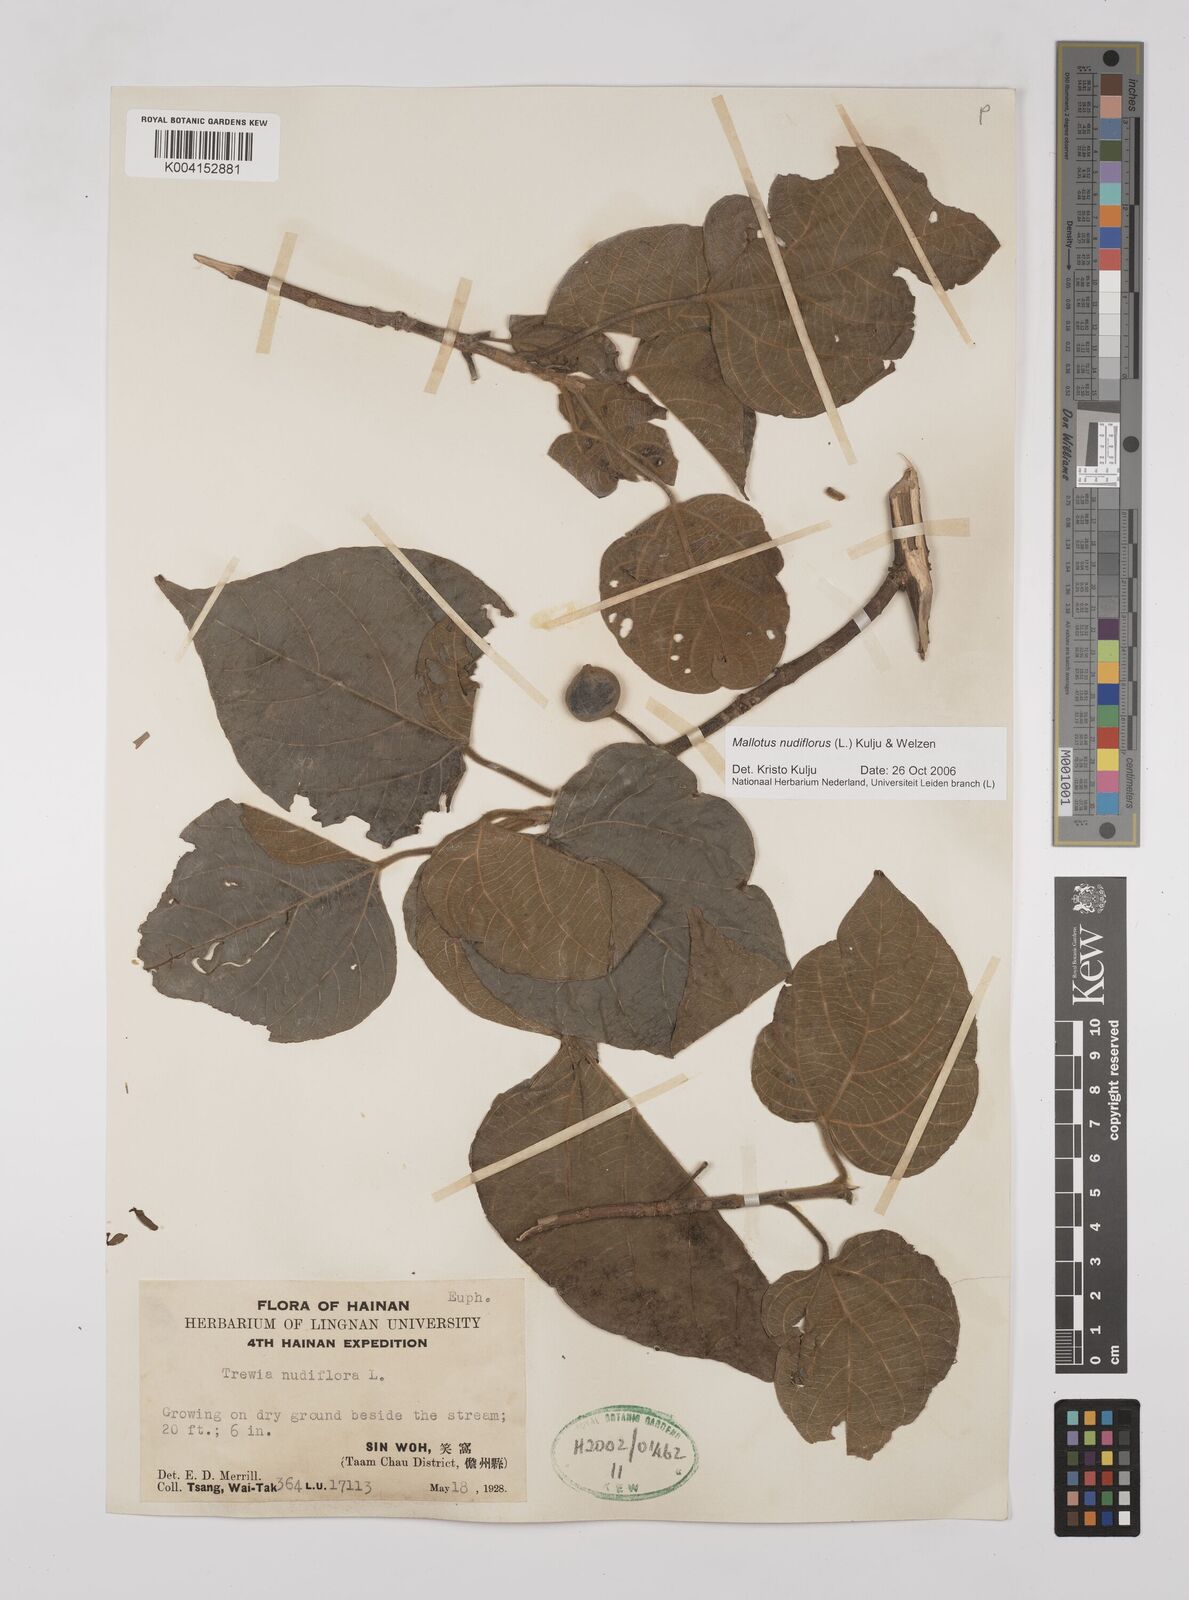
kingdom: Plantae
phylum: Tracheophyta
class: Magnoliopsida
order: Malpighiales
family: Euphorbiaceae
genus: Mallotus
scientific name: Mallotus nudiflorus
